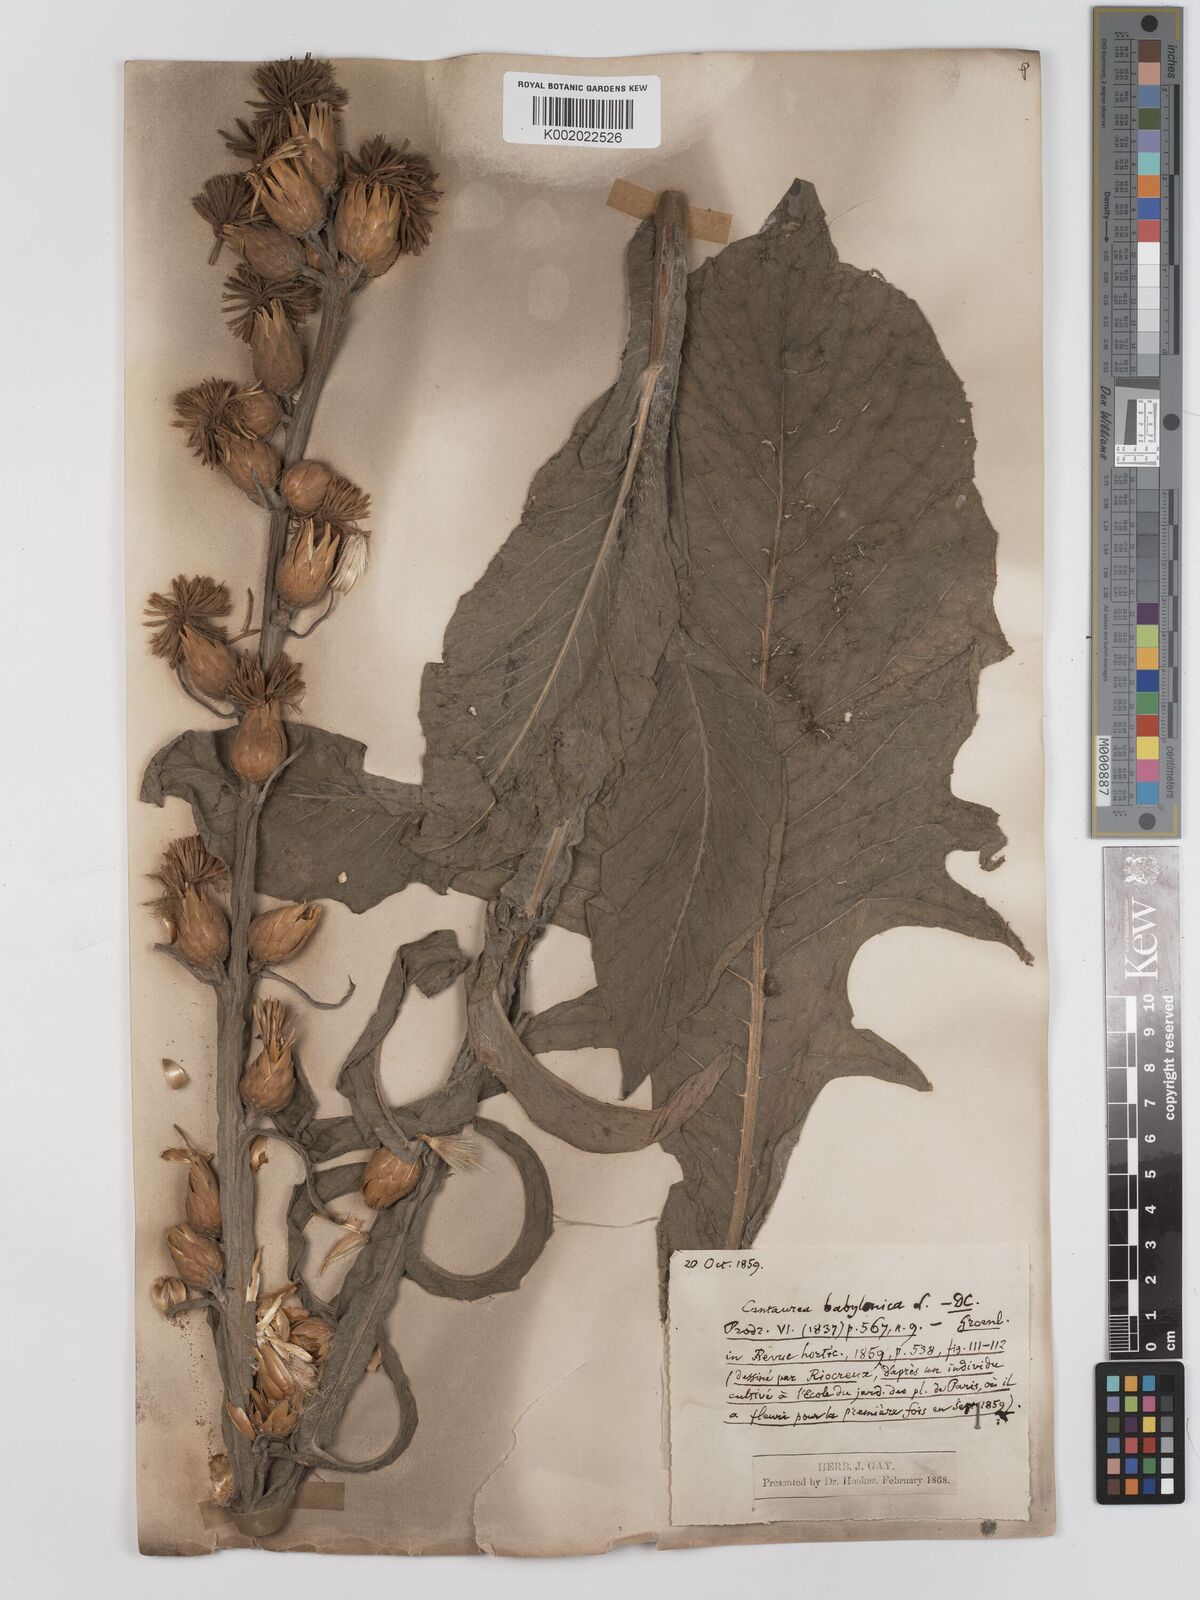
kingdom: Plantae
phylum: Tracheophyta
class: Magnoliopsida
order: Asterales
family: Asteraceae
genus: Centaurea
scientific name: Centaurea babylonica
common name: Syrian knapweed
